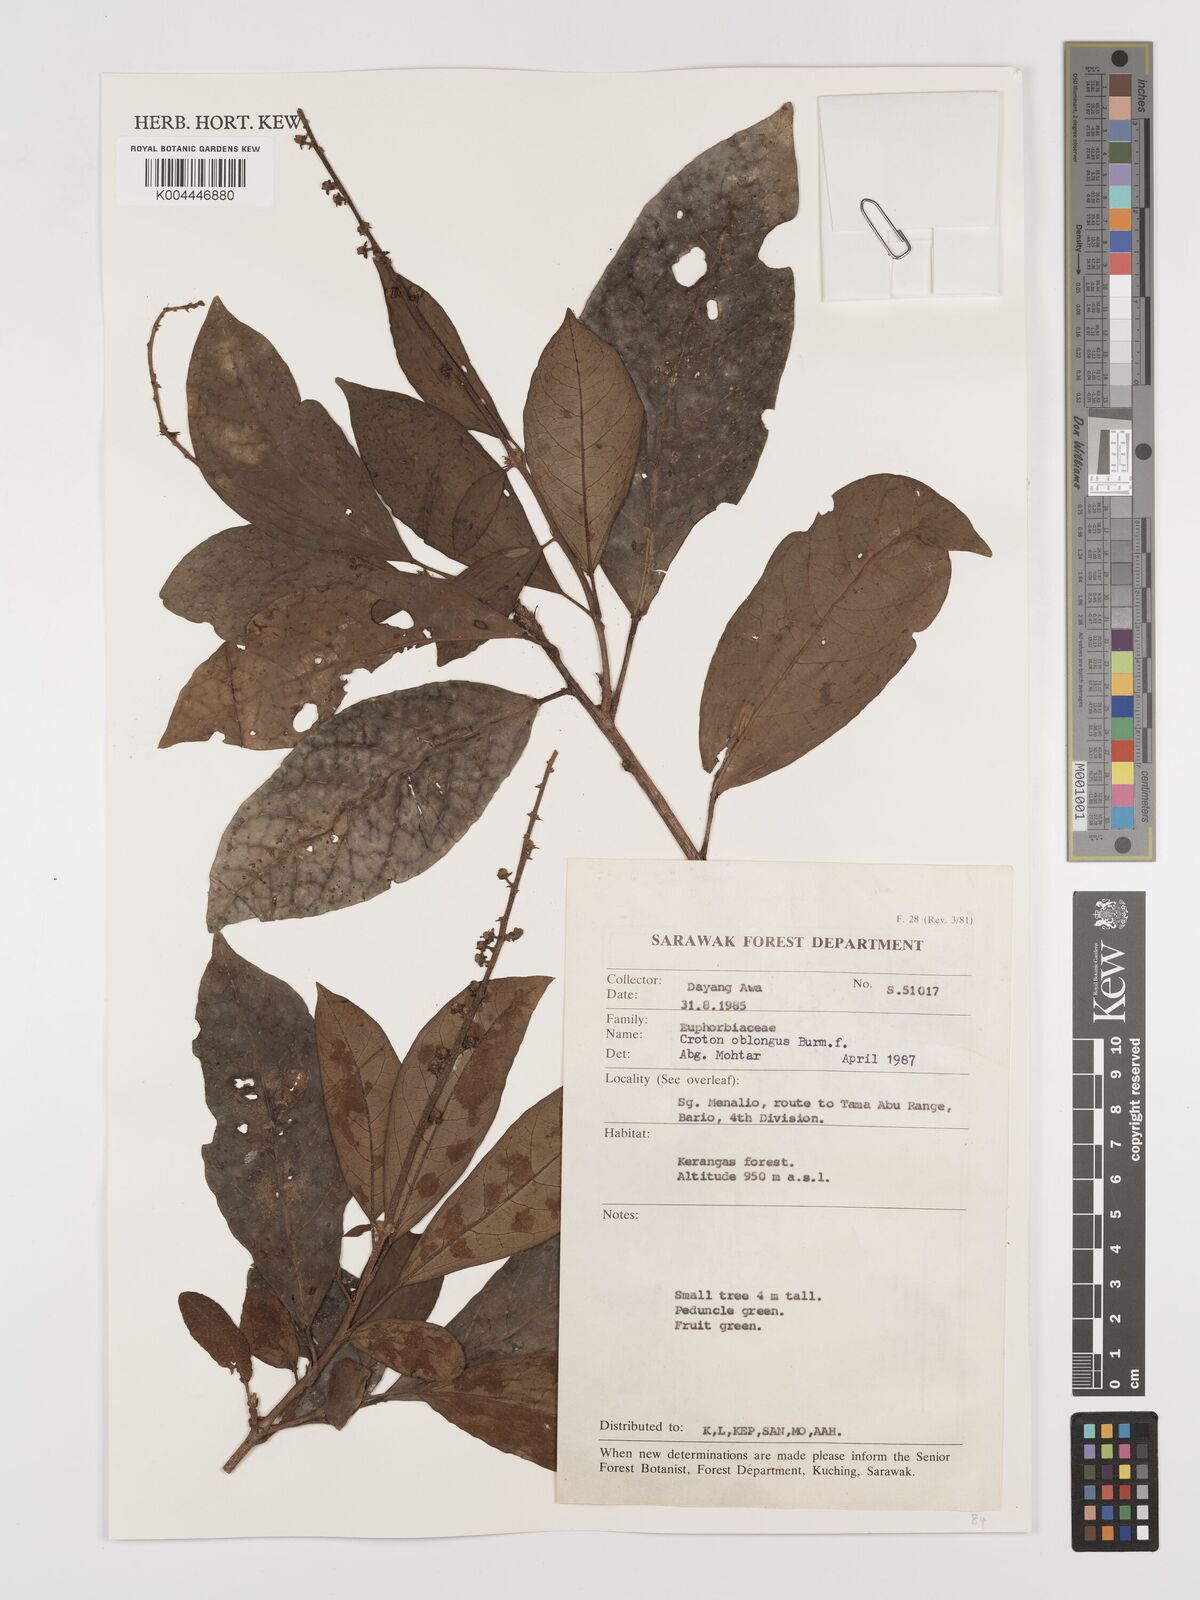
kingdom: Plantae
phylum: Tracheophyta
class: Magnoliopsida
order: Malpighiales
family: Euphorbiaceae
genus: Croton
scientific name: Croton oblongus
